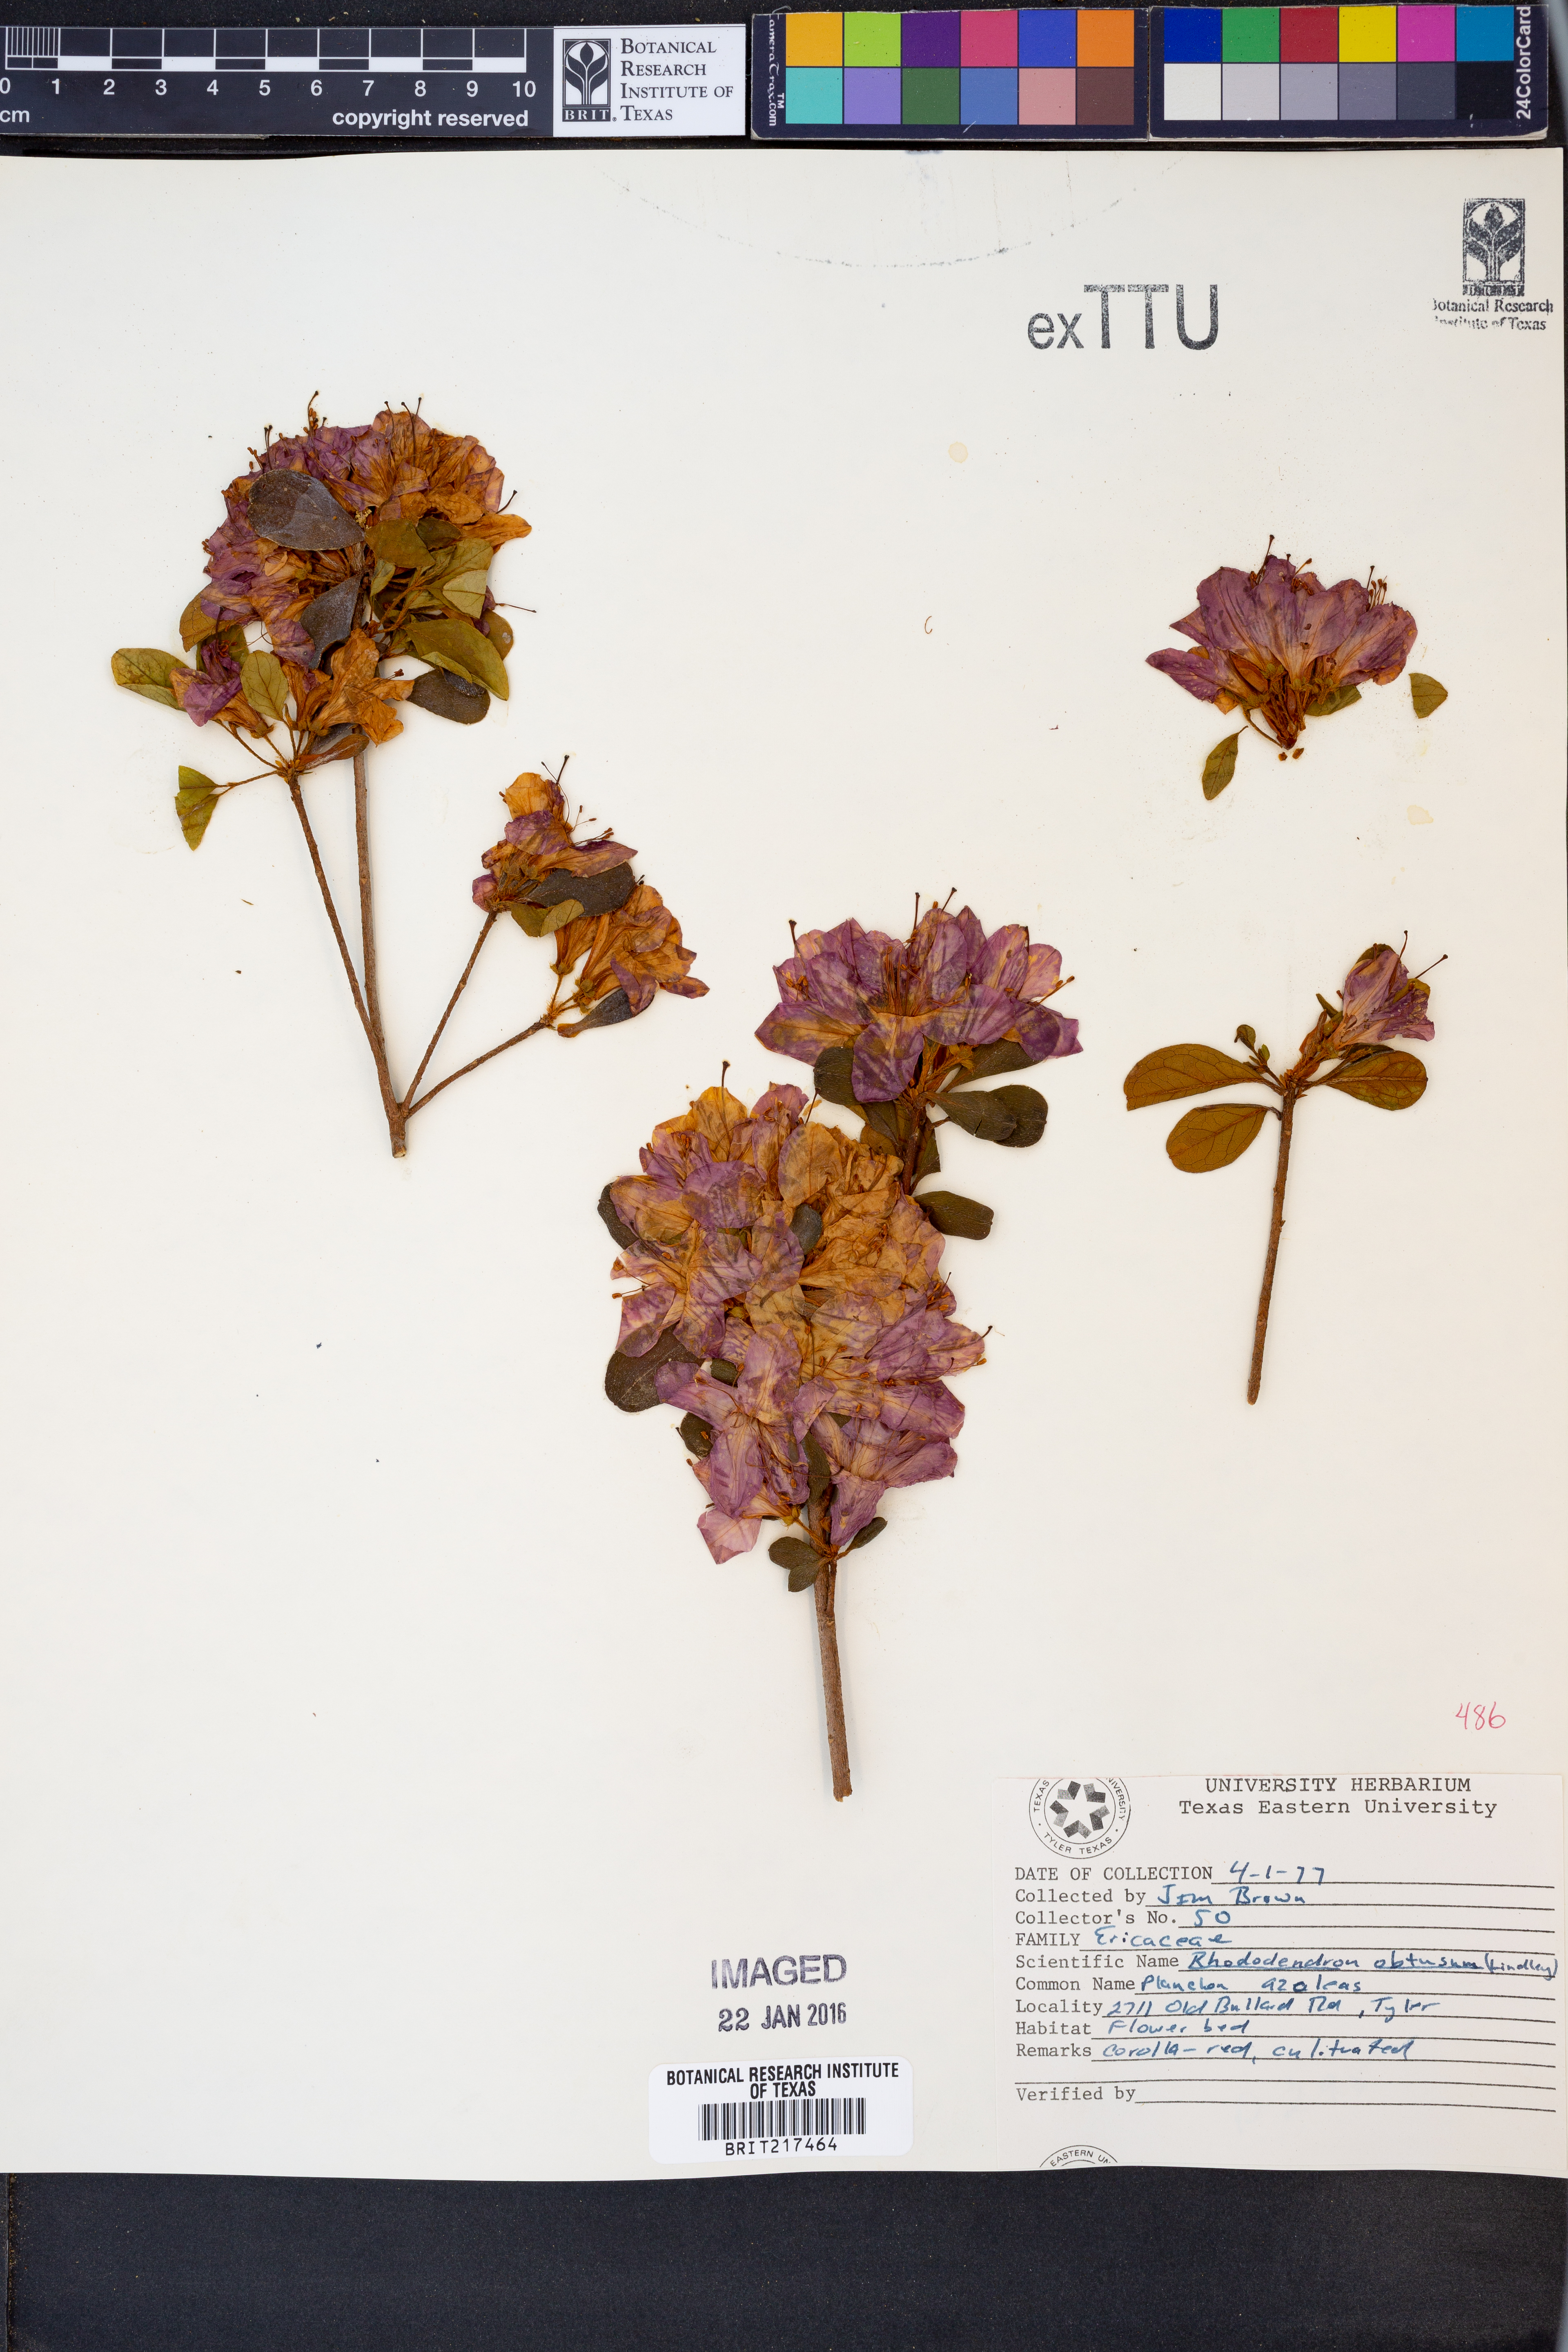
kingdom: Plantae
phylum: Tracheophyta
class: Magnoliopsida
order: Ericales
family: Ericaceae
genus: Rhododendron
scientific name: Rhododendron ponticum
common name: Rhododendron
